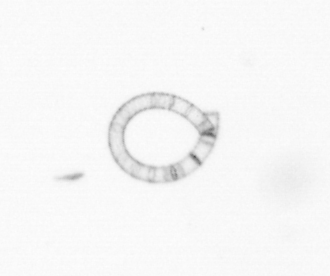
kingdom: Chromista
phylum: Ochrophyta
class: Bacillariophyceae
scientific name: Bacillariophyceae
